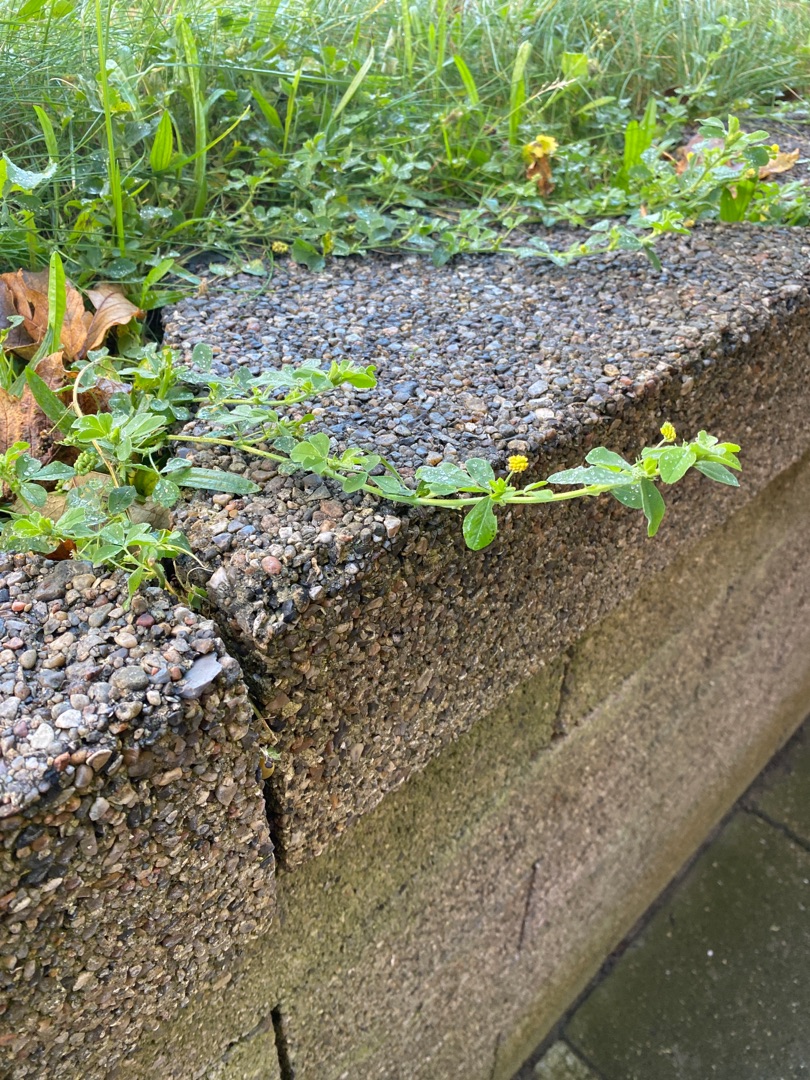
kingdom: Plantae
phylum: Tracheophyta
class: Magnoliopsida
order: Fabales
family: Fabaceae
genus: Medicago
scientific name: Medicago lupulina
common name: Humle-sneglebælg
